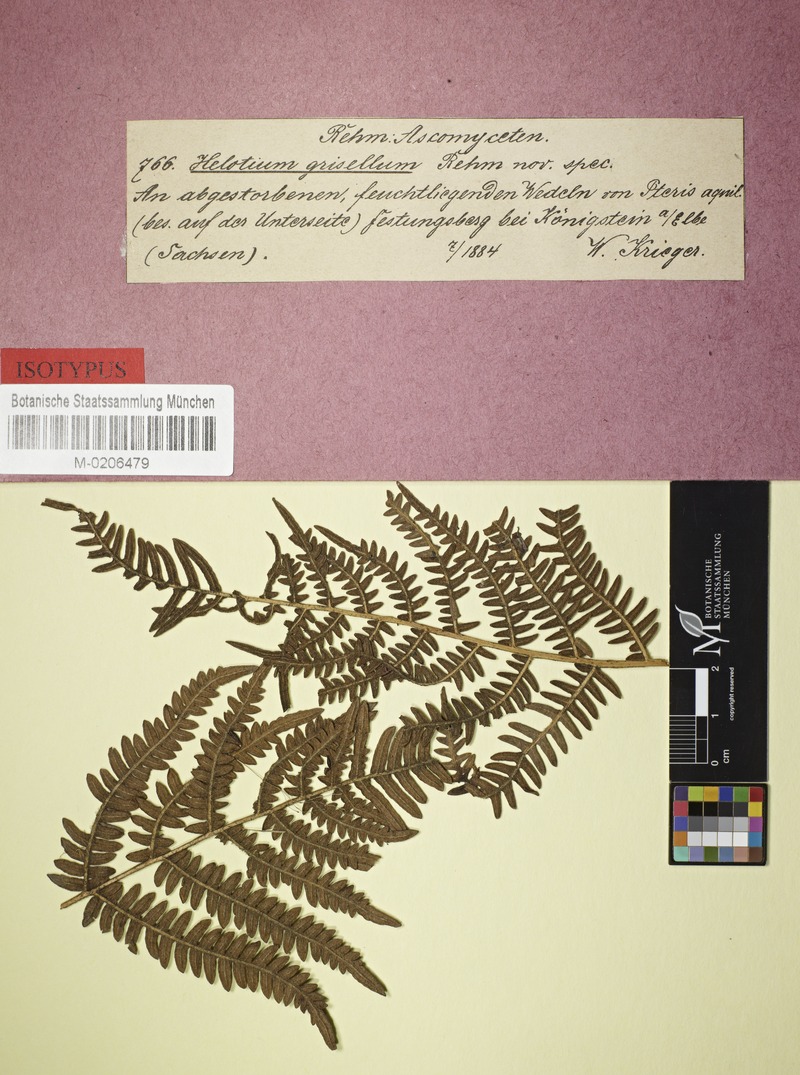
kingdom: Fungi
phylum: Ascomycota
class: Leotiomycetes
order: Helotiales
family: Hamatocanthoscyphaceae
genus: Microscypha
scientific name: Microscypha grisella
